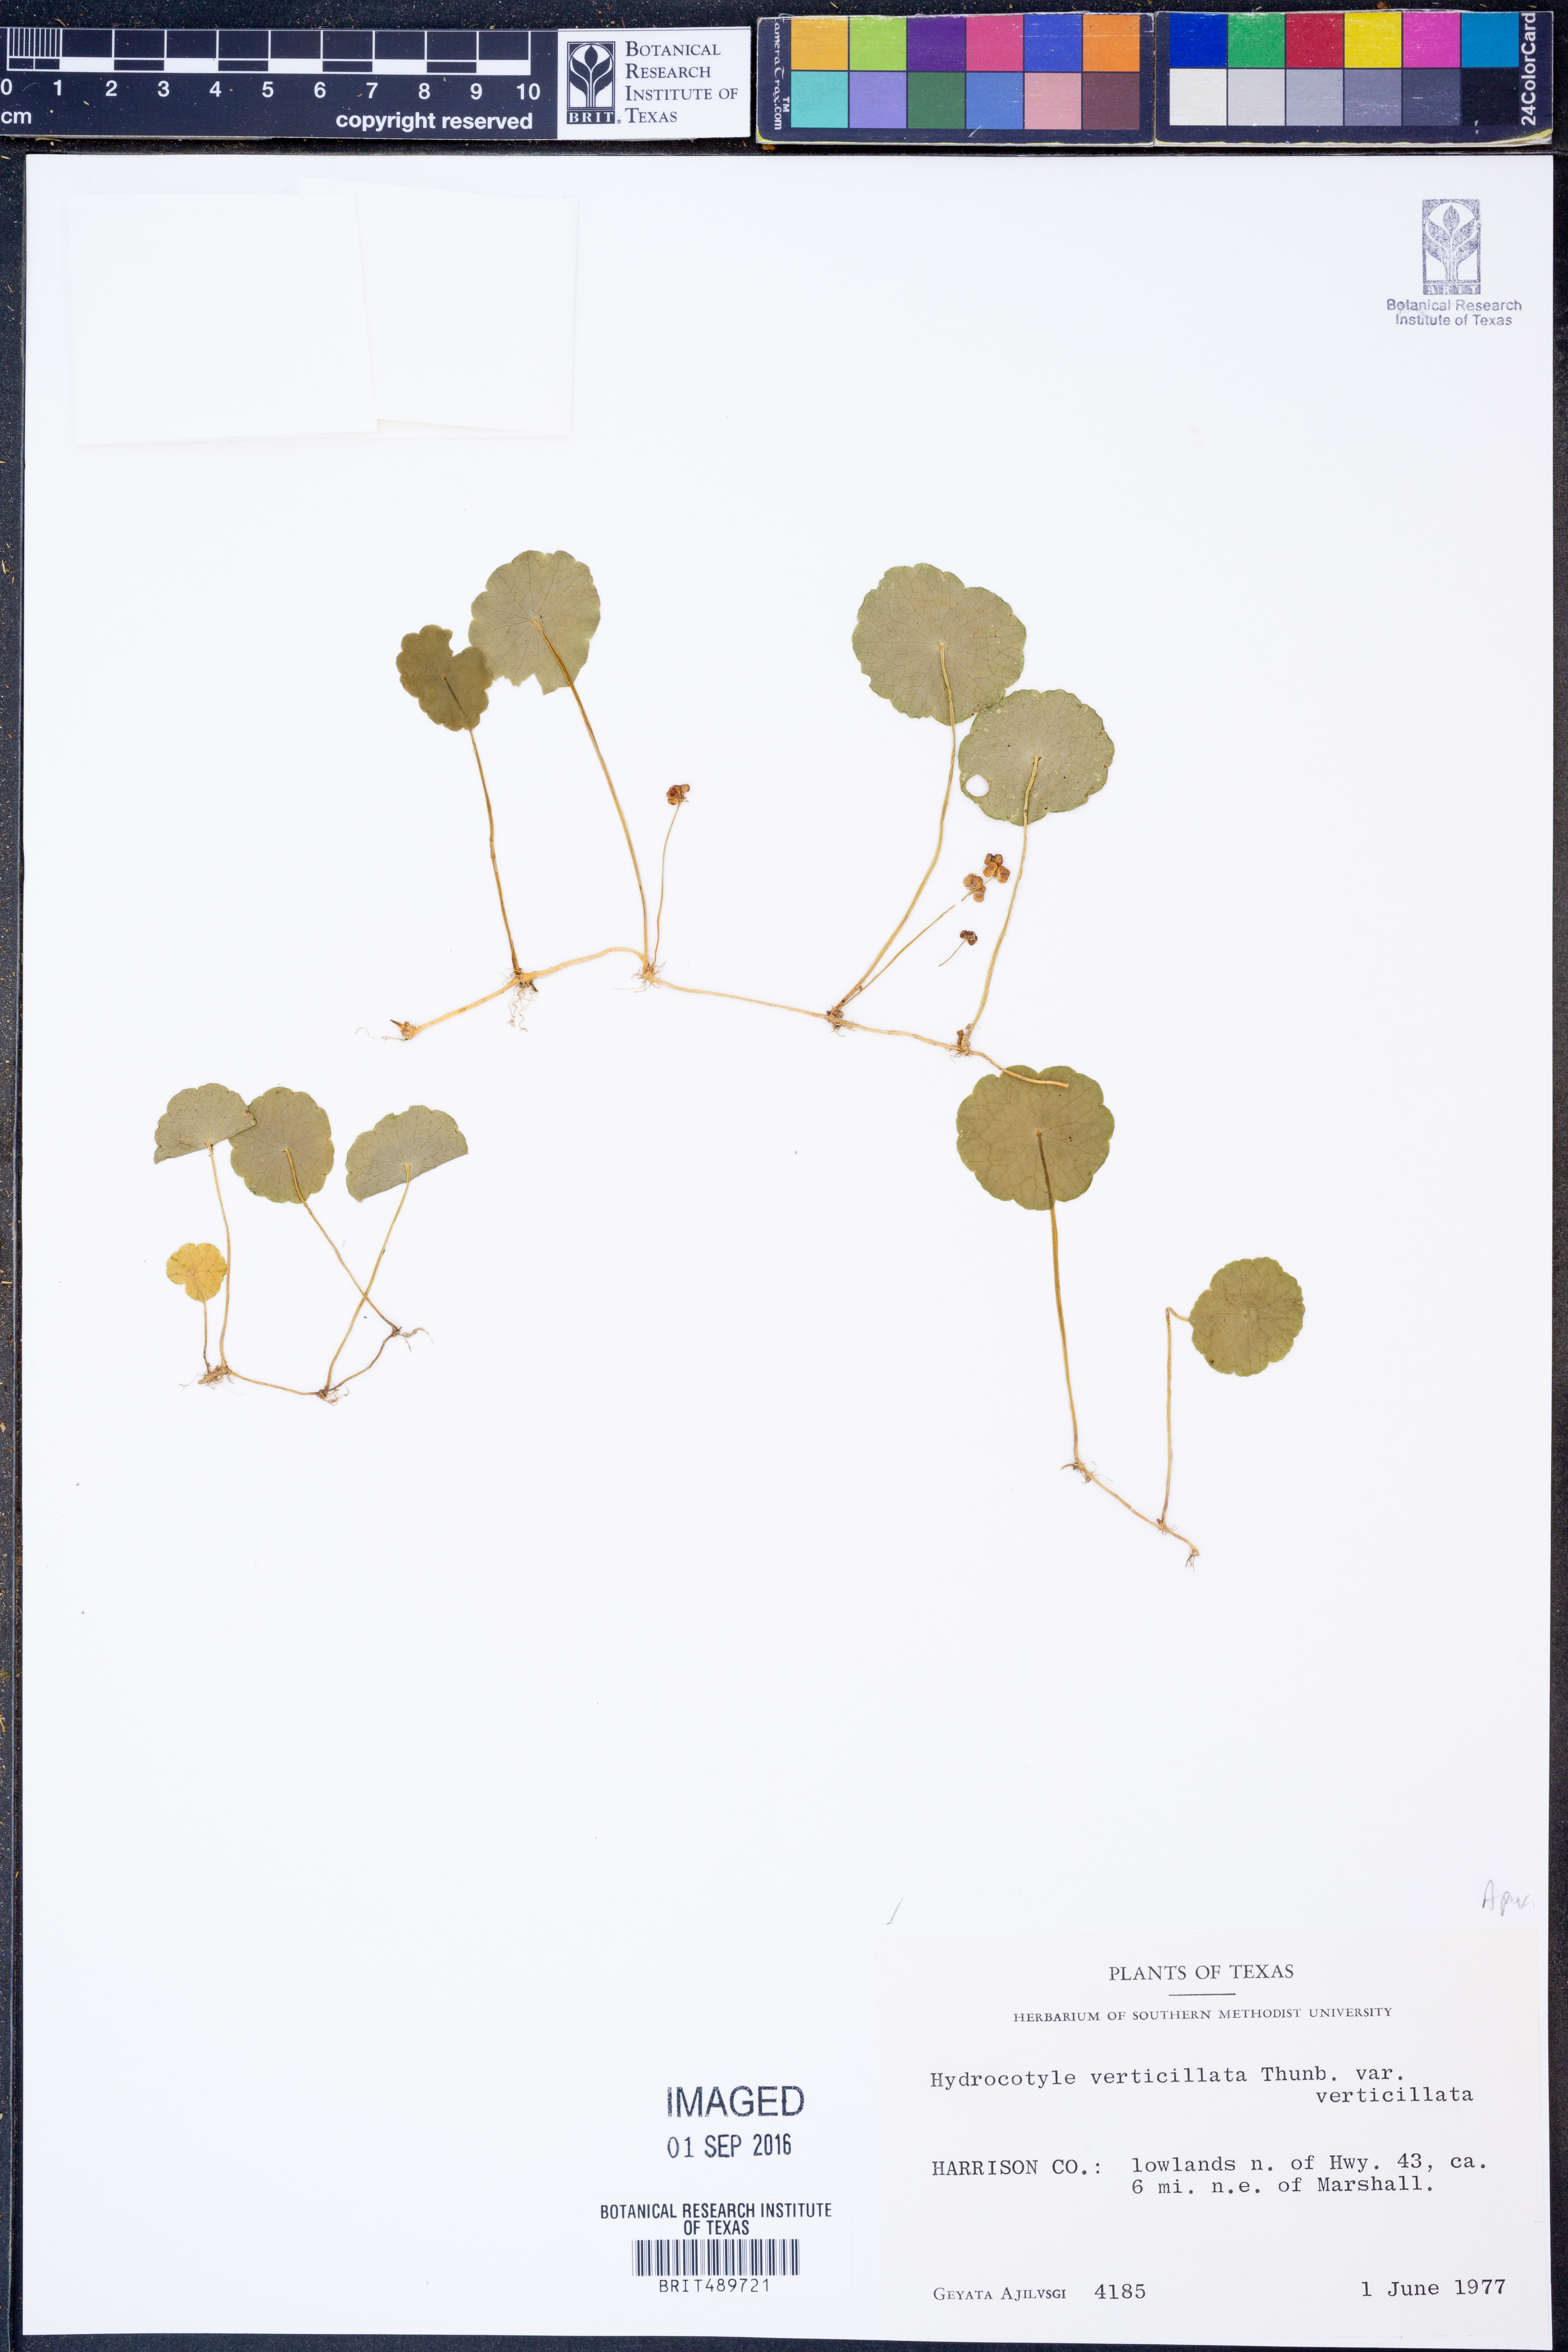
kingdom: Plantae
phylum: Tracheophyta
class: Magnoliopsida
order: Apiales
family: Araliaceae
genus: Hydrocotyle
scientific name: Hydrocotyle verticillata
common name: Whorled marshpennywort
